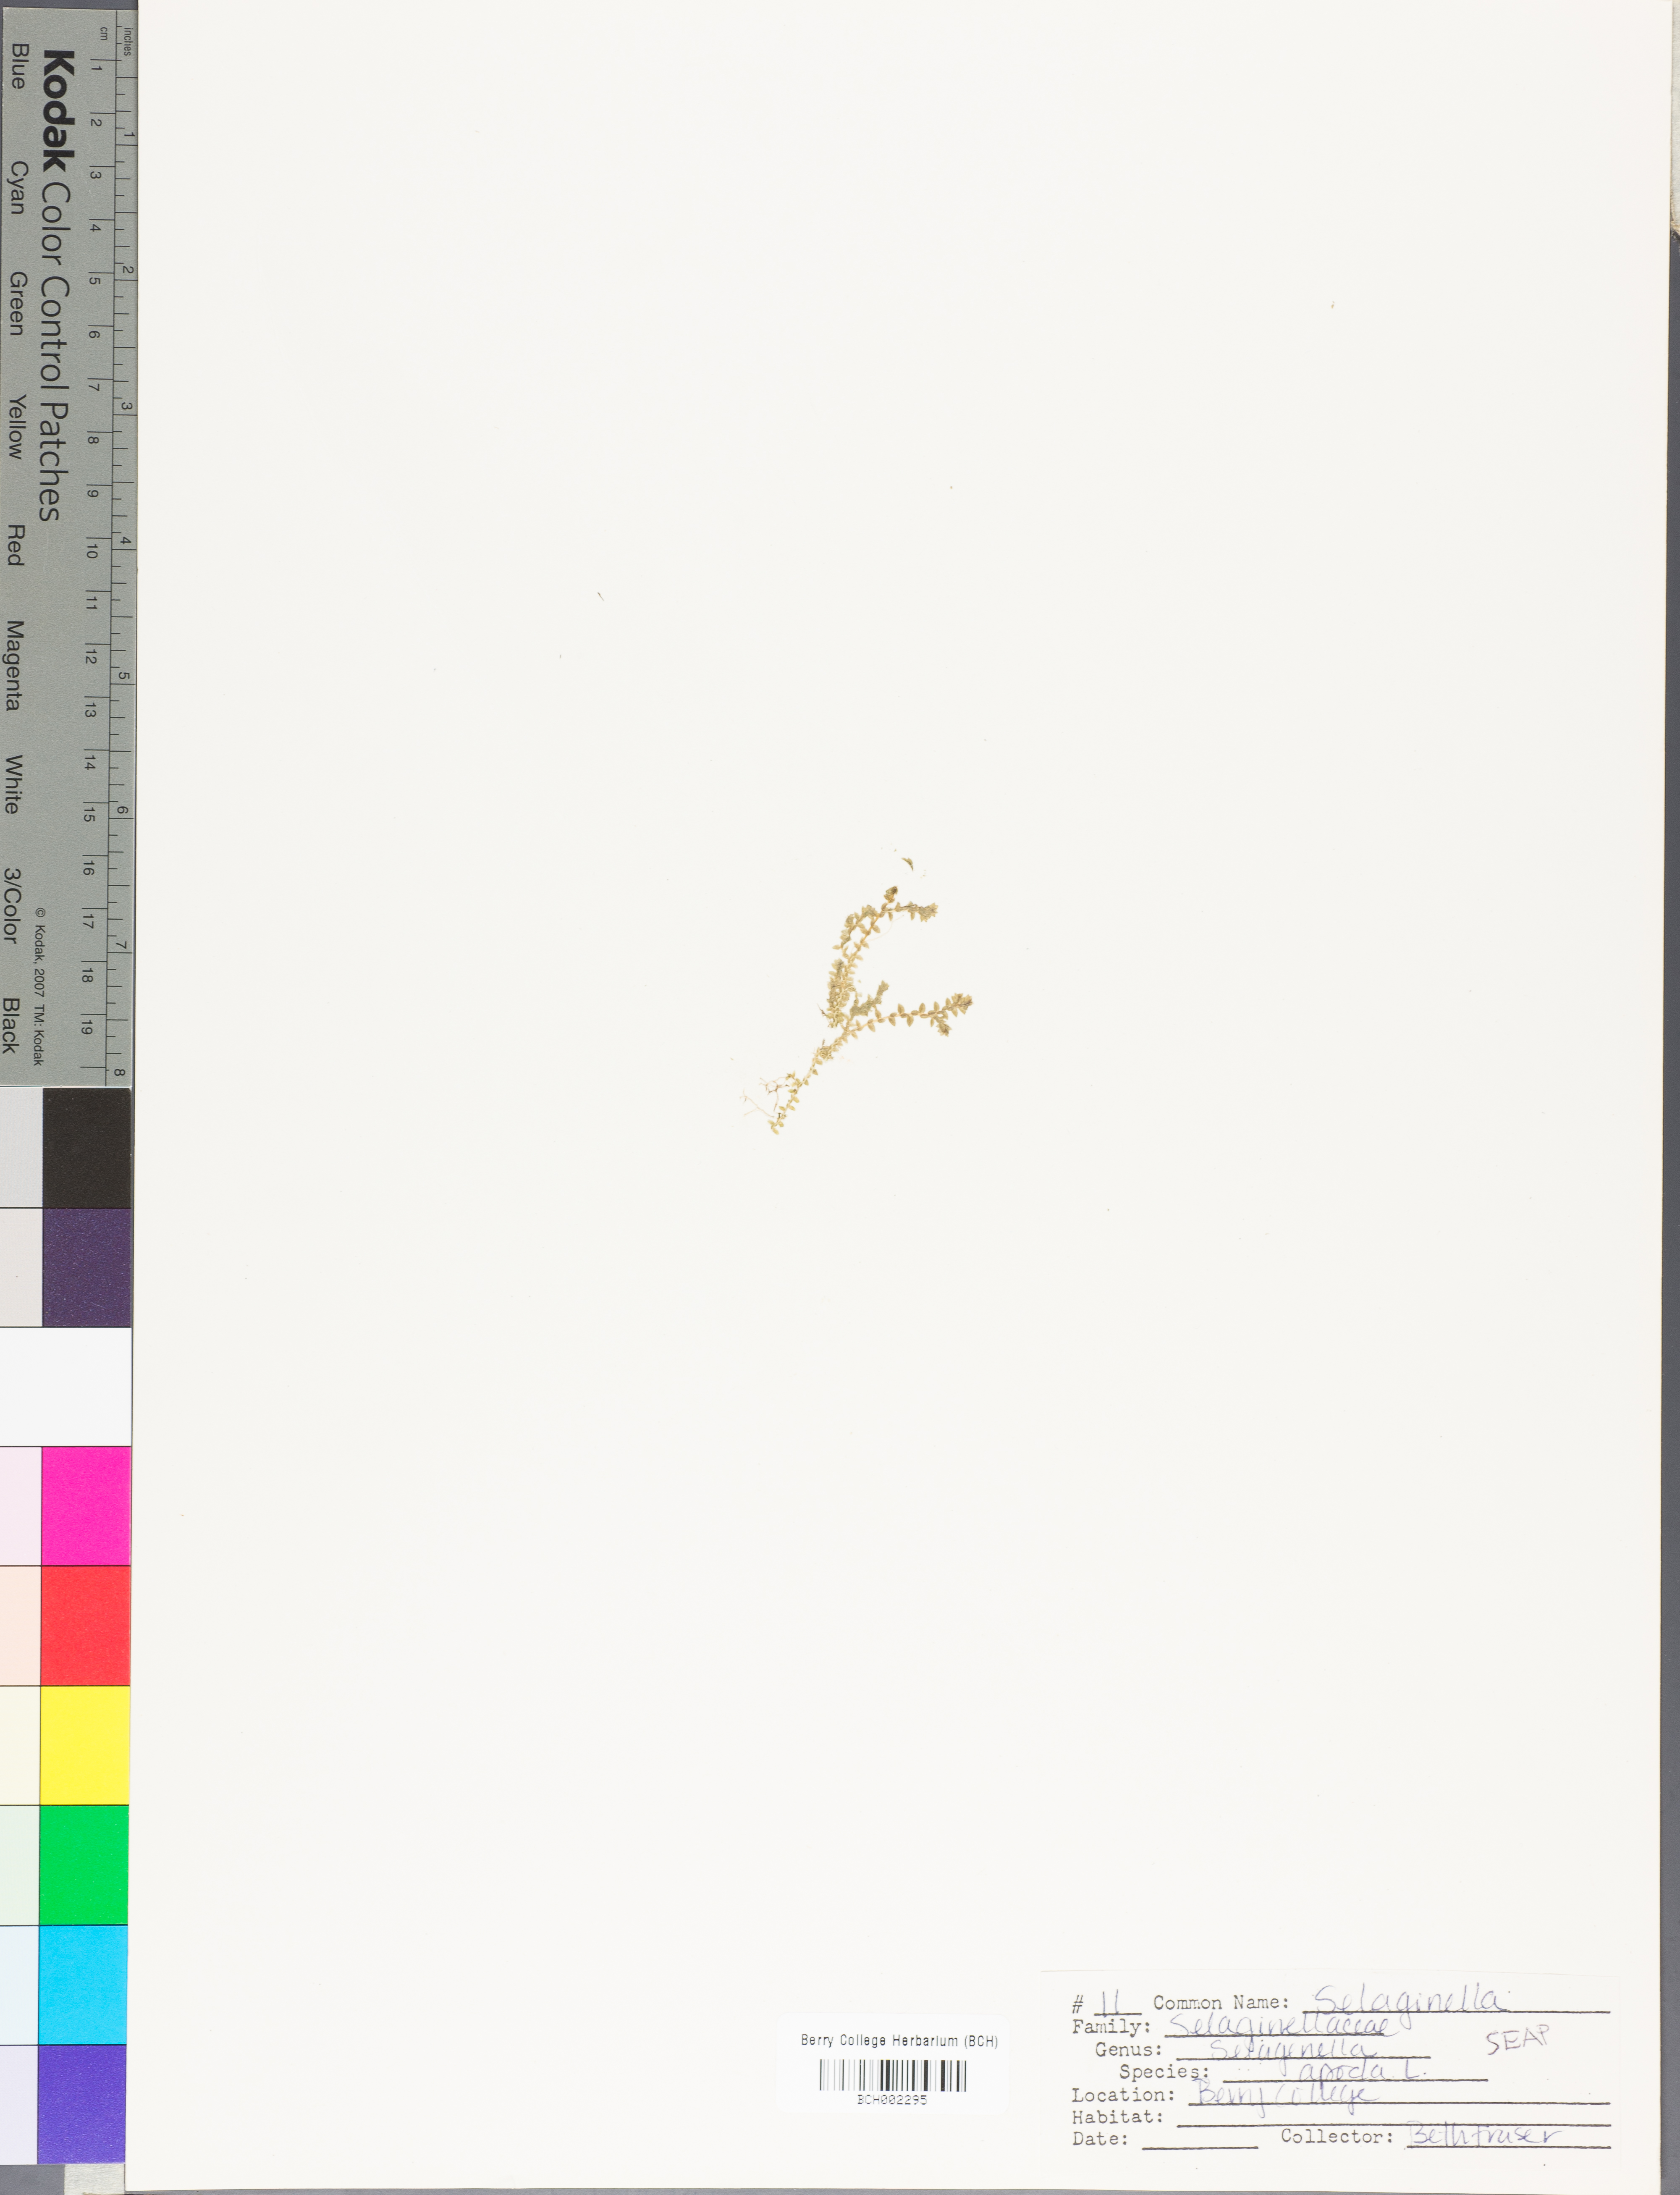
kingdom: Plantae
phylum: Tracheophyta
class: Lycopodiopsida
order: Selaginellales
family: Selaginellaceae
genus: Selaginella
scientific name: Selaginella apoda
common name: Creeping spikemoss
